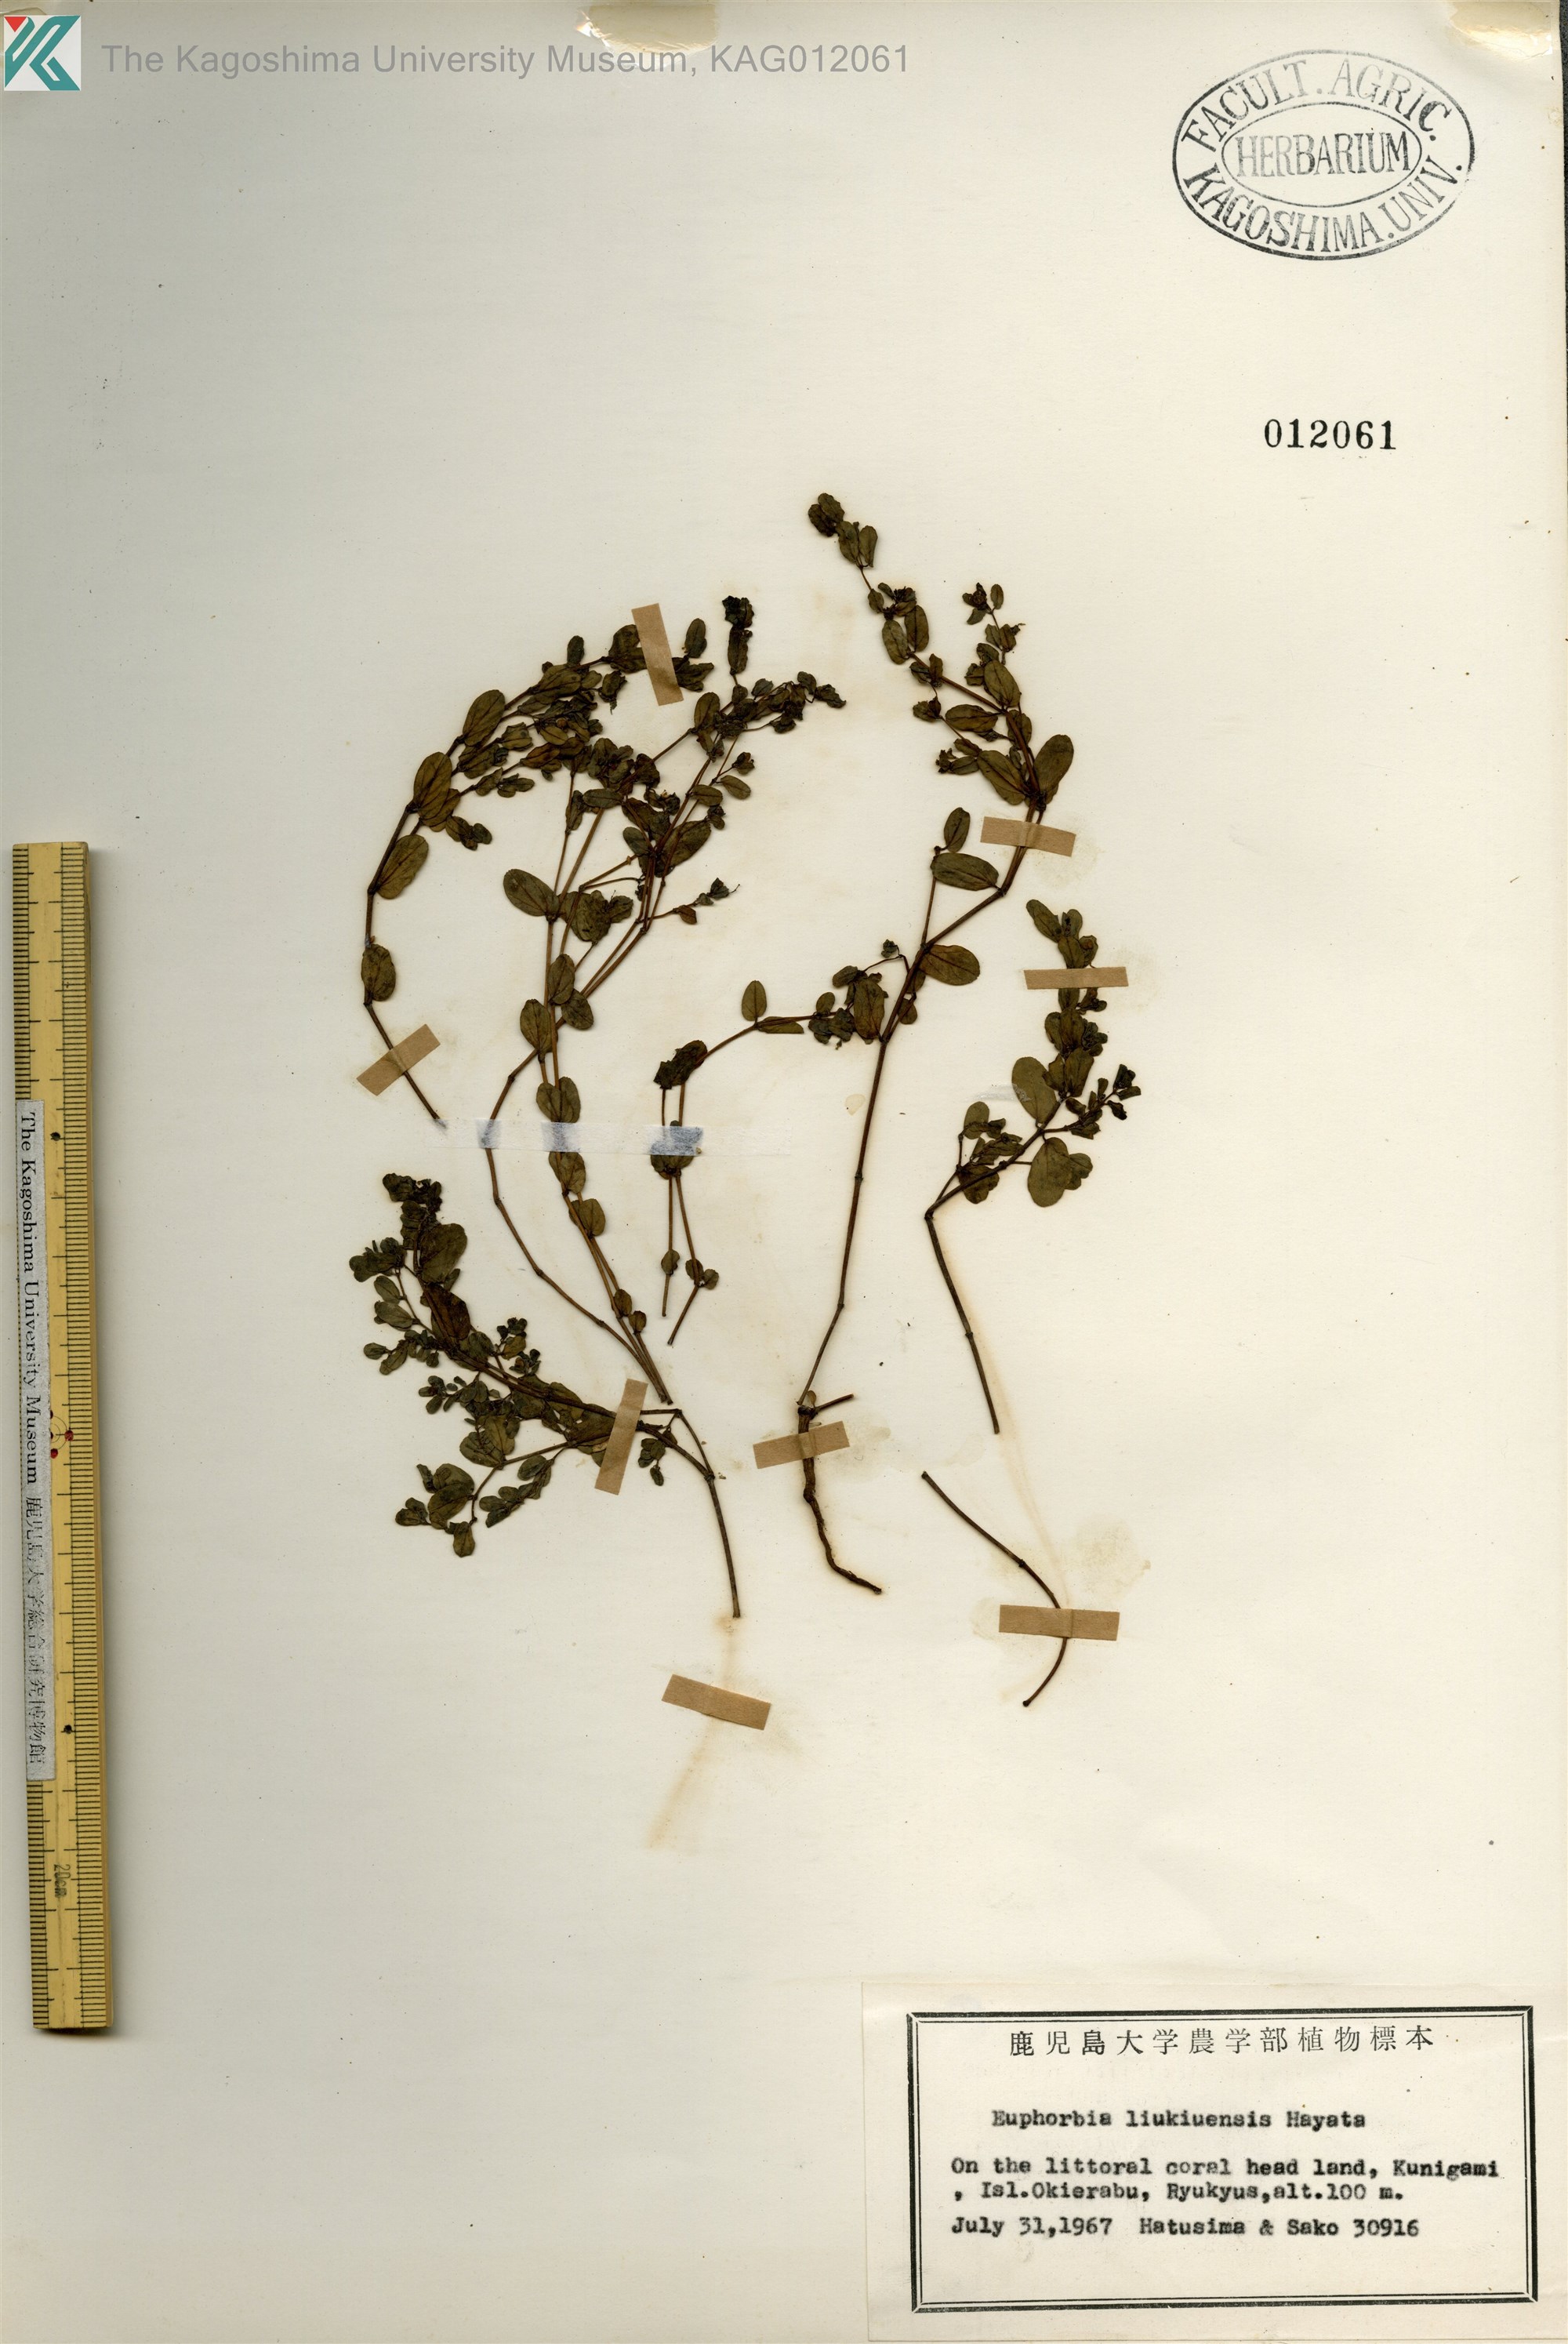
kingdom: Plantae
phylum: Tracheophyta
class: Magnoliopsida
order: Malpighiales
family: Euphorbiaceae
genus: Euphorbia
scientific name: Euphorbia liukiuensis
